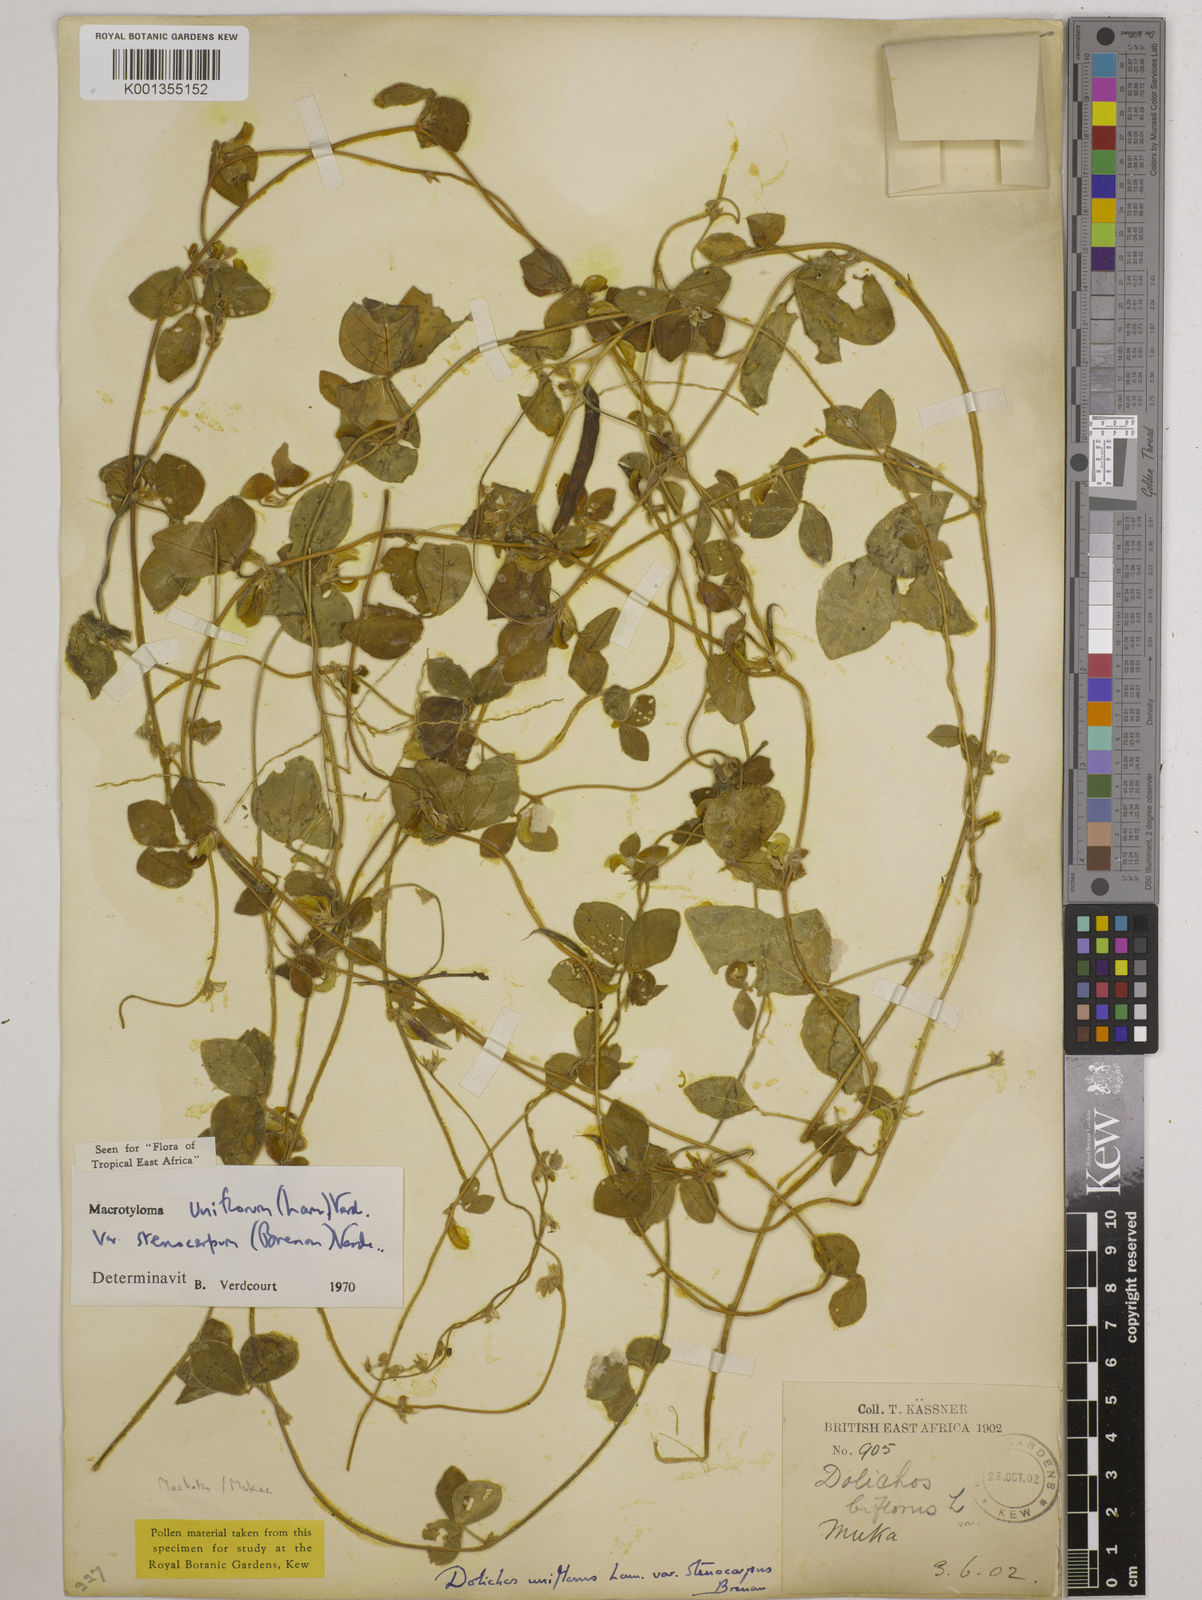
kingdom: Plantae
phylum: Tracheophyta
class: Magnoliopsida
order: Fabales
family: Fabaceae
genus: Macrotyloma
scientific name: Macrotyloma
